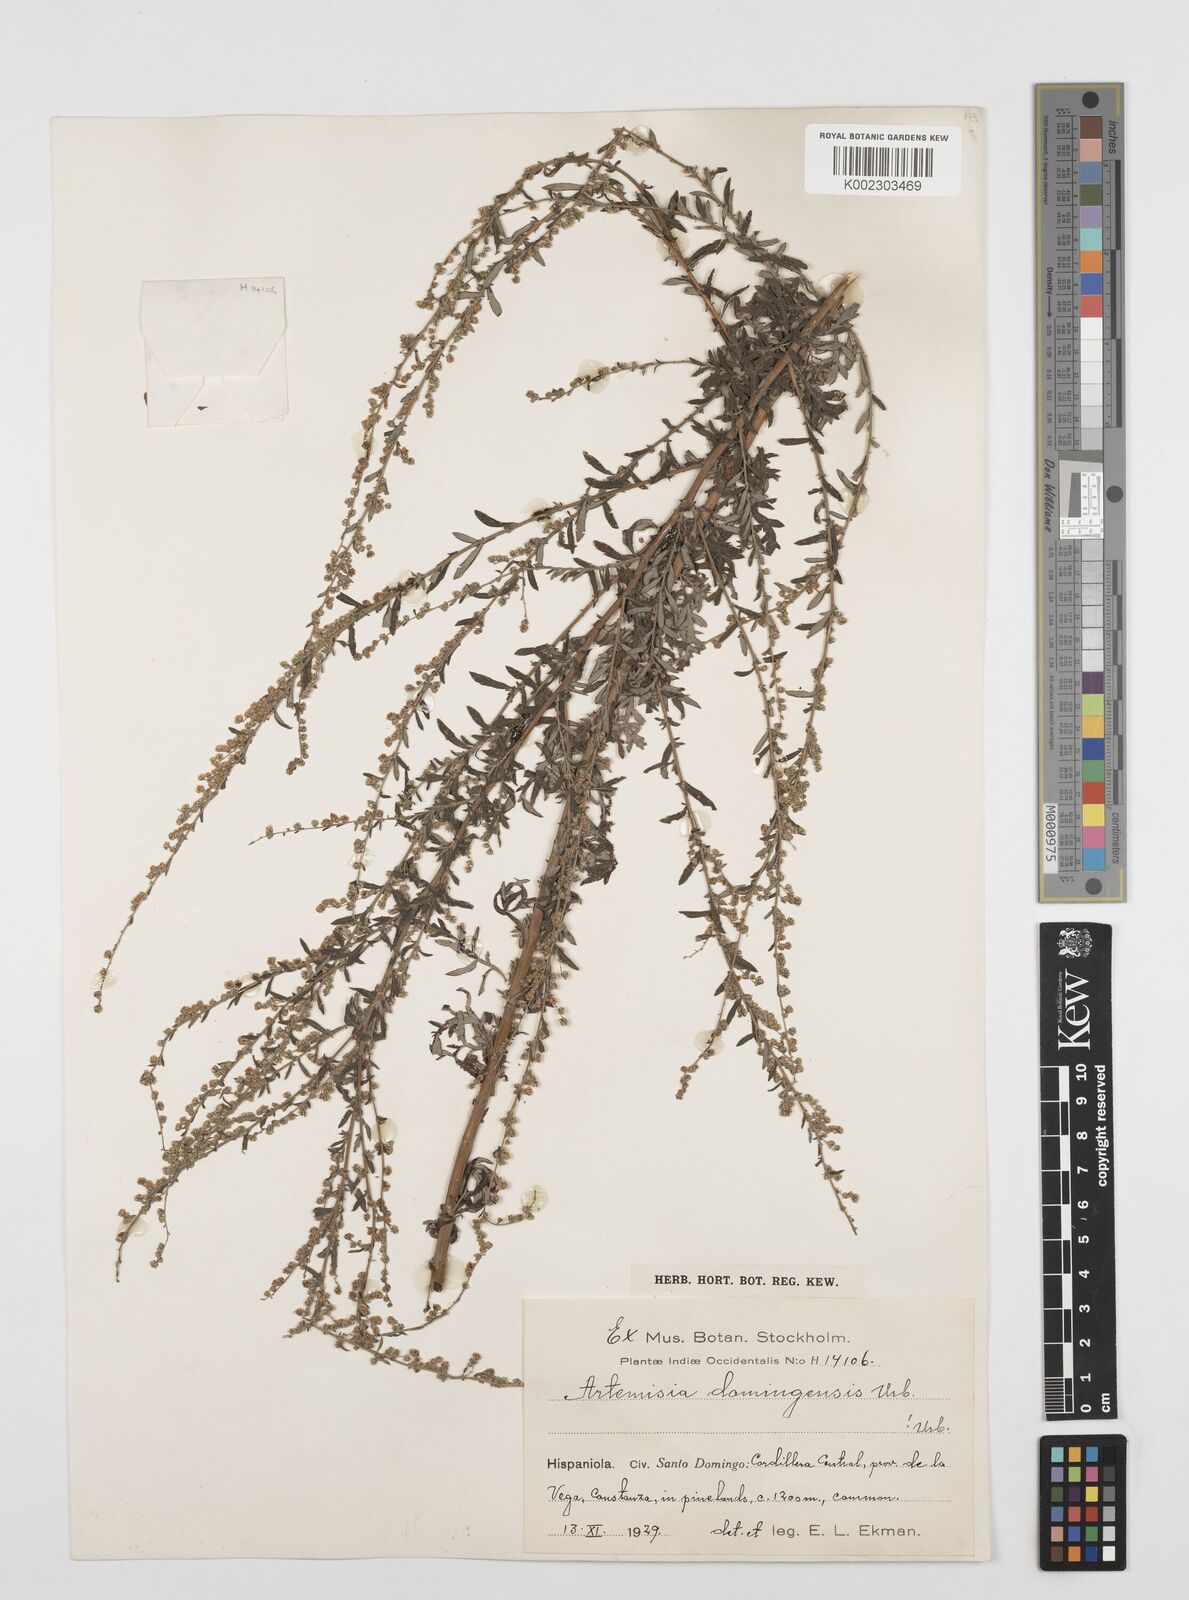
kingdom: Plantae
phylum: Tracheophyta
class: Magnoliopsida
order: Asterales
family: Asteraceae
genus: Artemisia
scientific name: Artemisia domingensis
